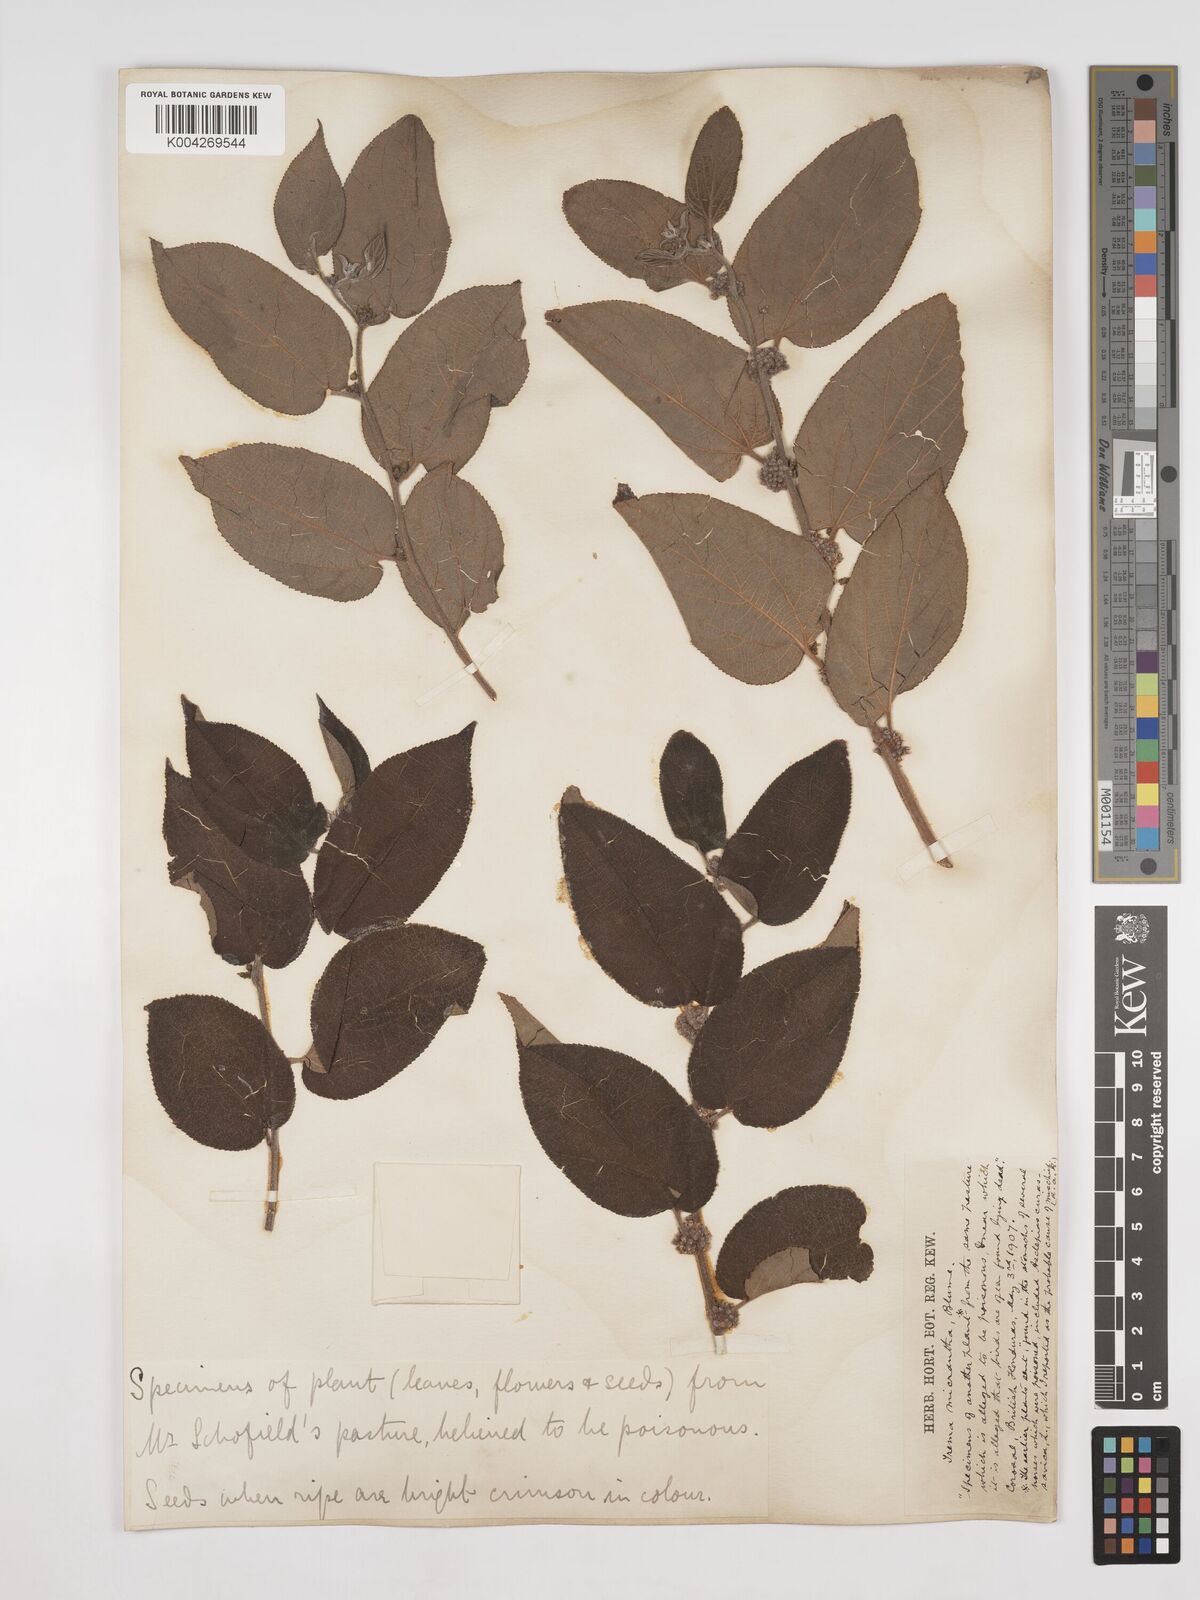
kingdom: Plantae
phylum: Tracheophyta
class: Magnoliopsida
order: Rosales
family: Cannabaceae
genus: Trema
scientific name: Trema micranthum
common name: Jamaican nettletree
